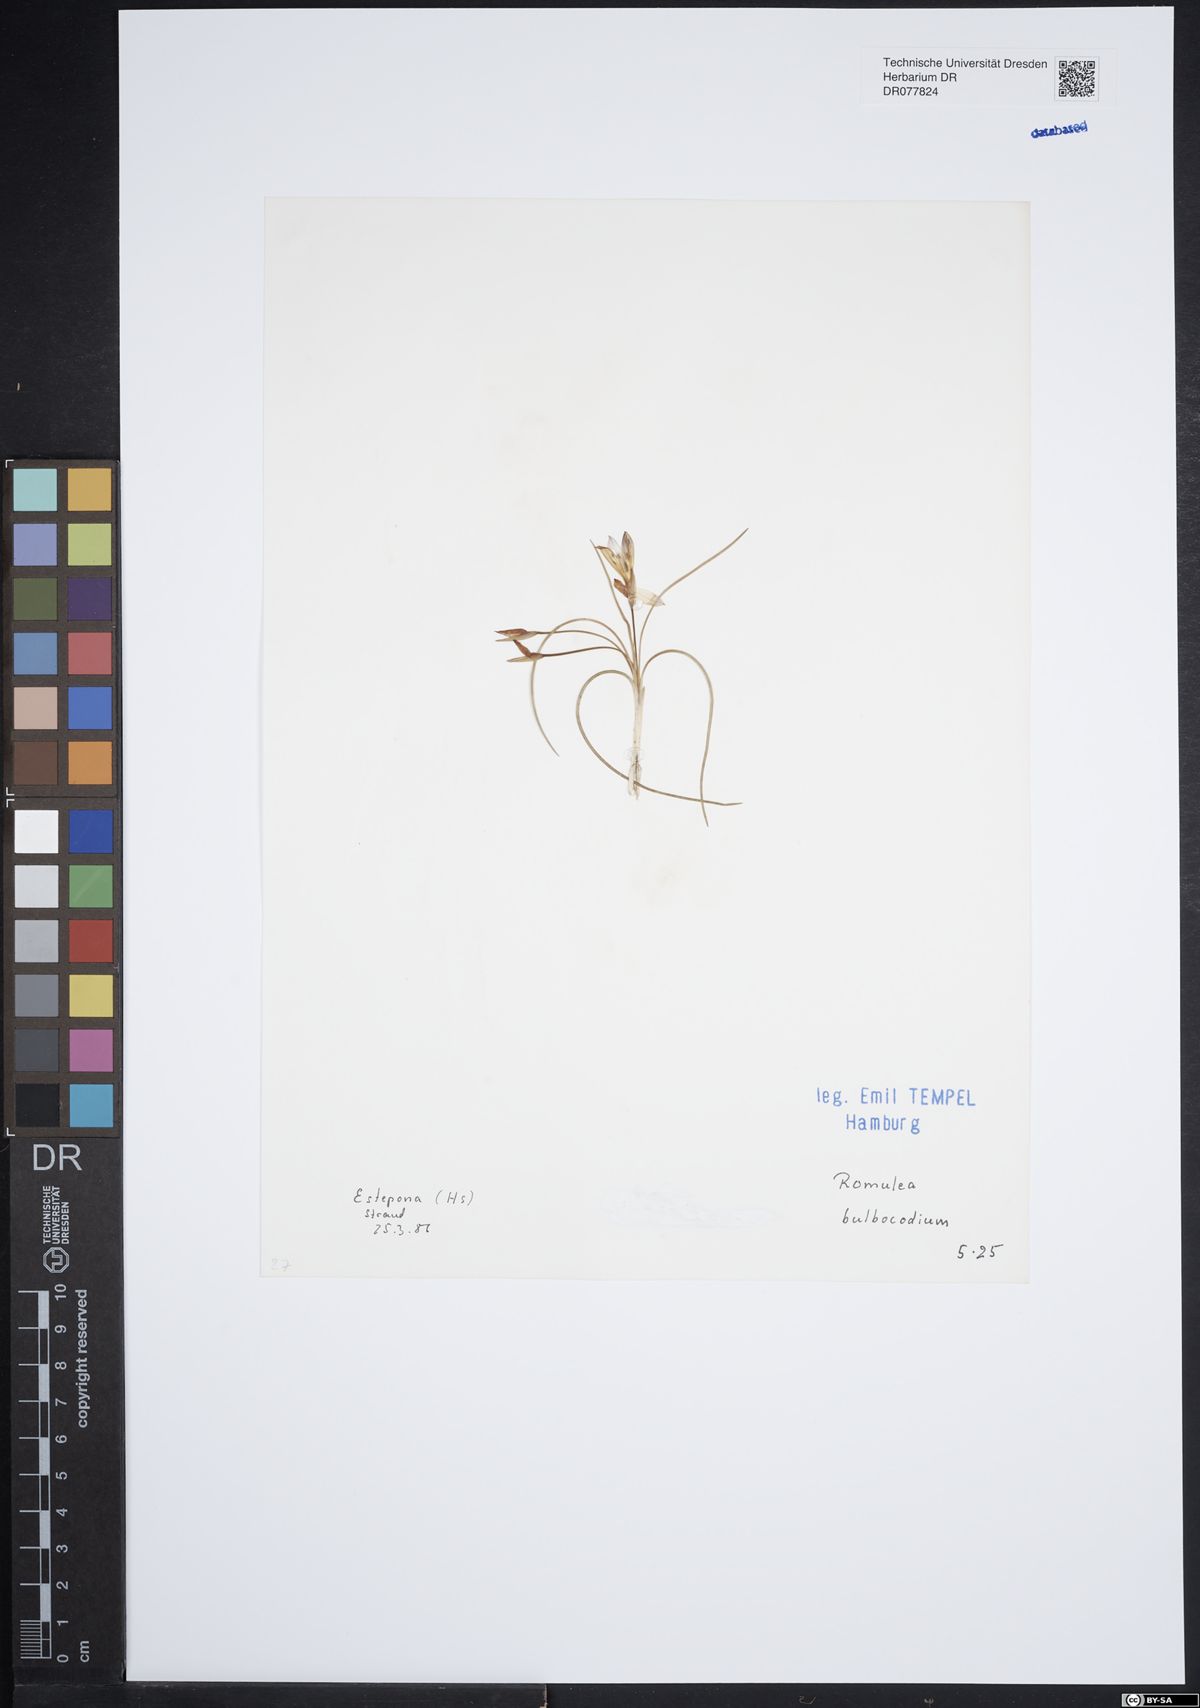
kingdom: Plantae
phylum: Tracheophyta
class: Liliopsida
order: Asparagales
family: Iridaceae
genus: Romulea
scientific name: Romulea bulbocodium
